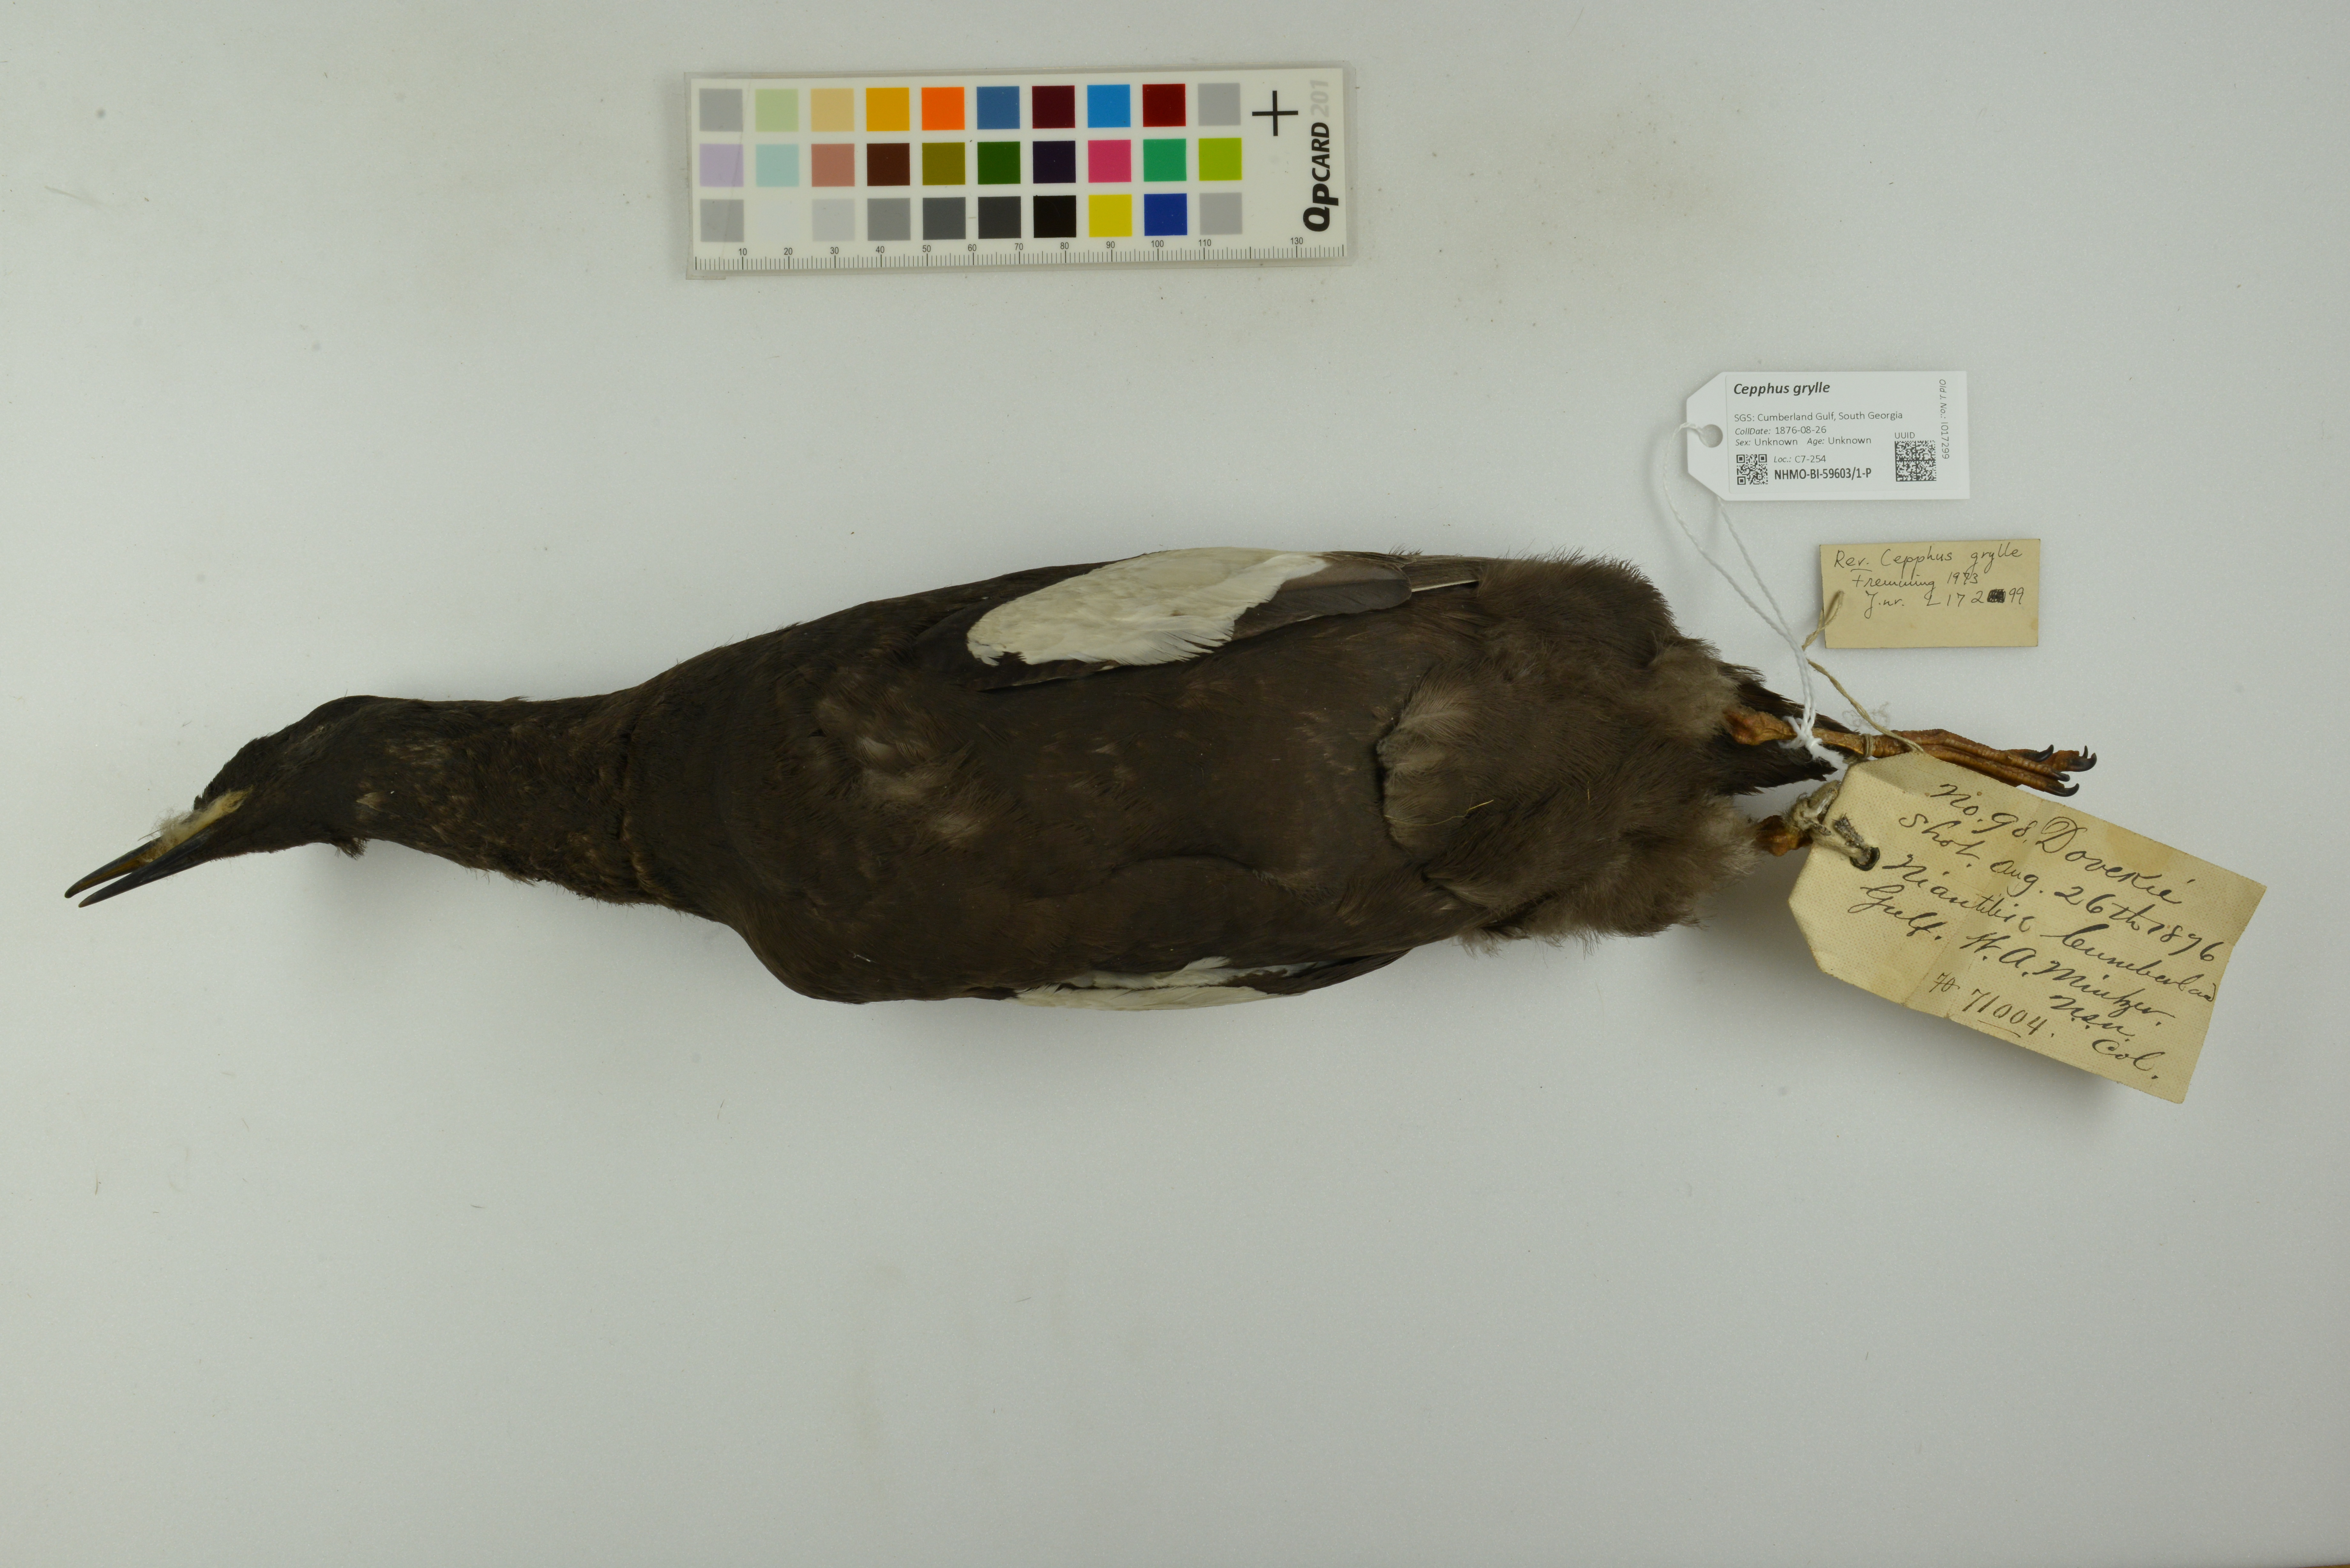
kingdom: Animalia
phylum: Chordata
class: Aves
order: Charadriiformes
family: Alcidae
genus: Cepphus
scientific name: Cepphus grylle
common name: Black guillemot
